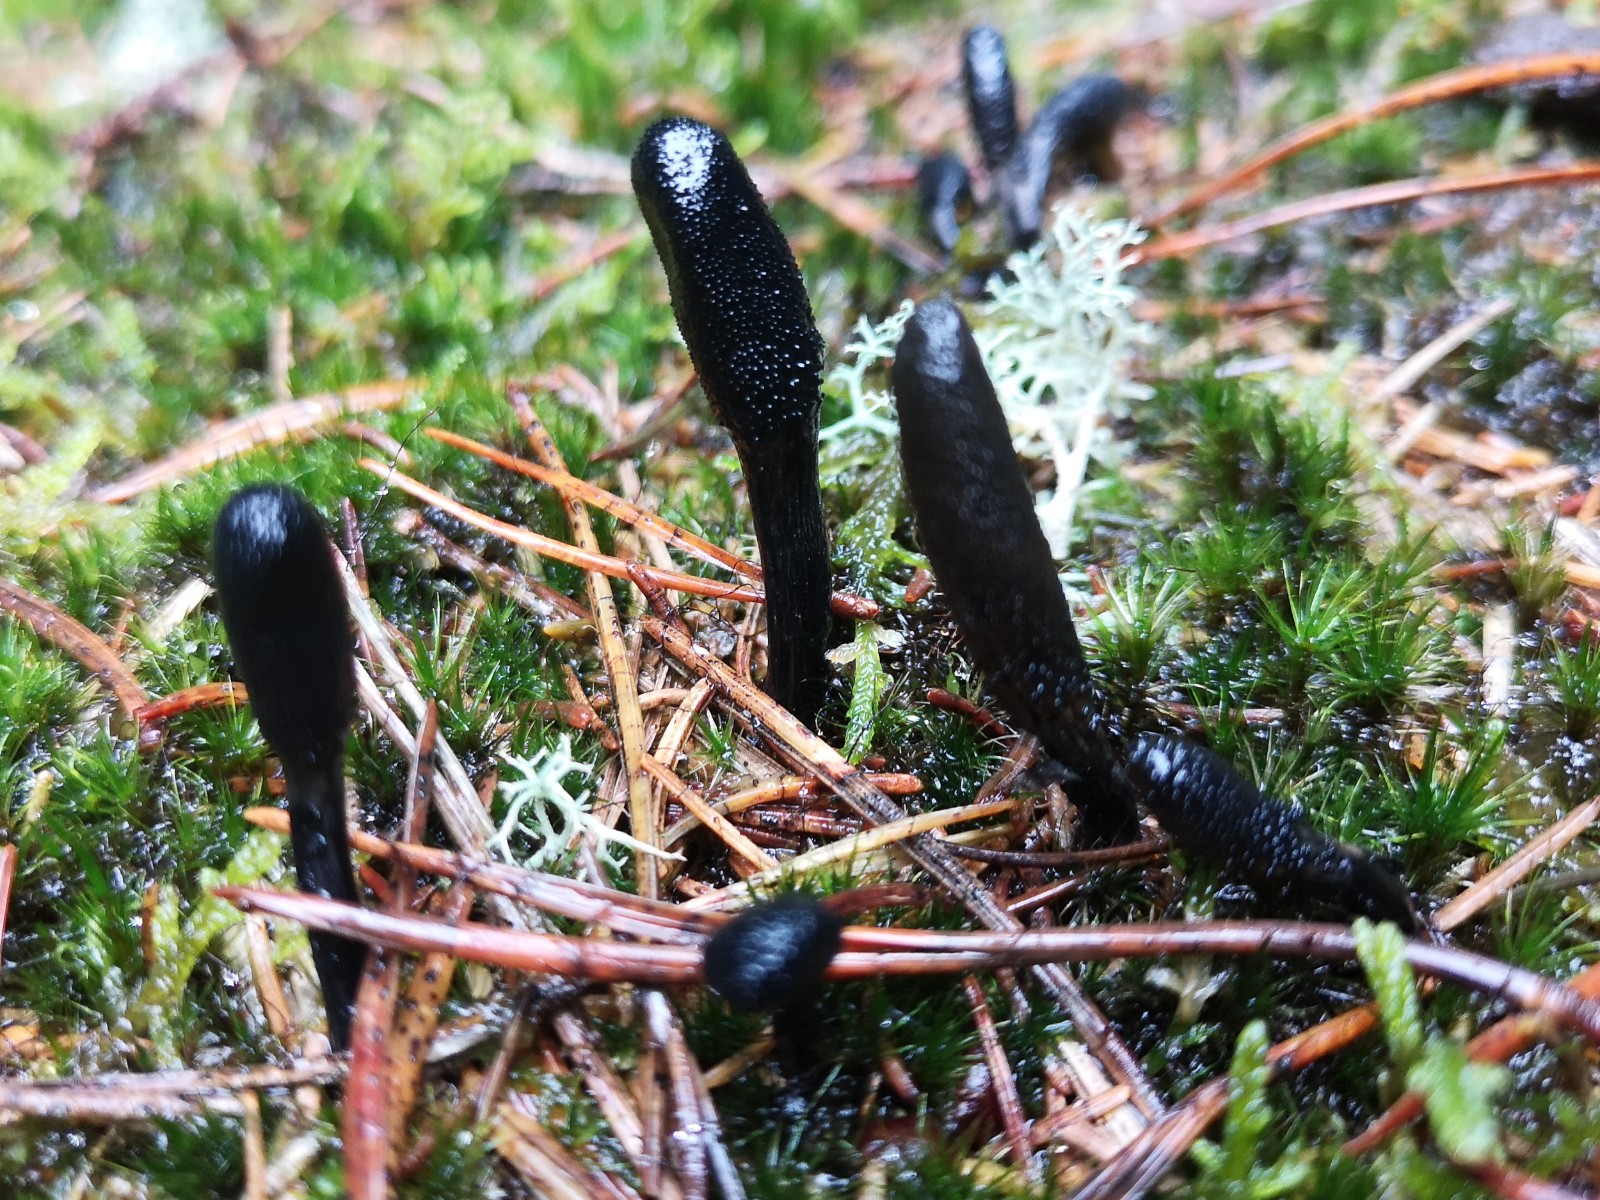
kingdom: Fungi
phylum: Ascomycota
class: Sordariomycetes
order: Hypocreales
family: Ophiocordycipitaceae
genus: Tolypocladium
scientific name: Tolypocladium ophioglossoides
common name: slank snyltekølle
